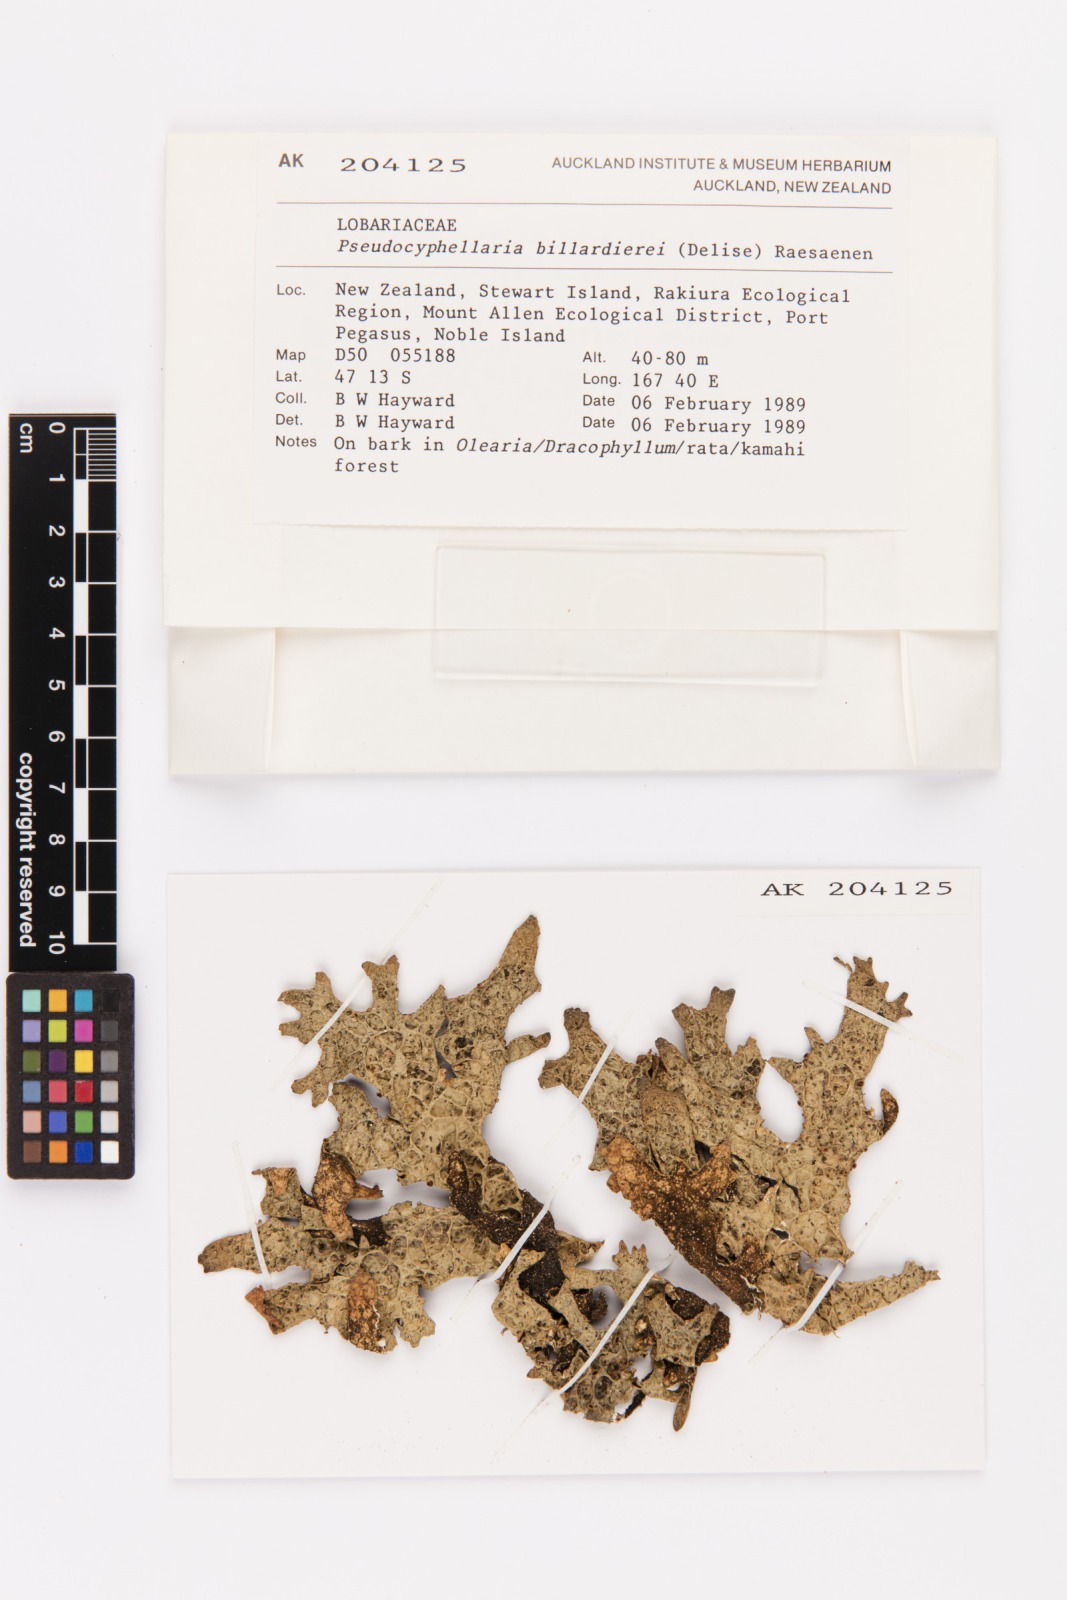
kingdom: Fungi
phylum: Ascomycota
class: Lecanoromycetes
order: Peltigerales
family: Lobariaceae
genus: Pseudocyphellaria
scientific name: Pseudocyphellaria billardierei
